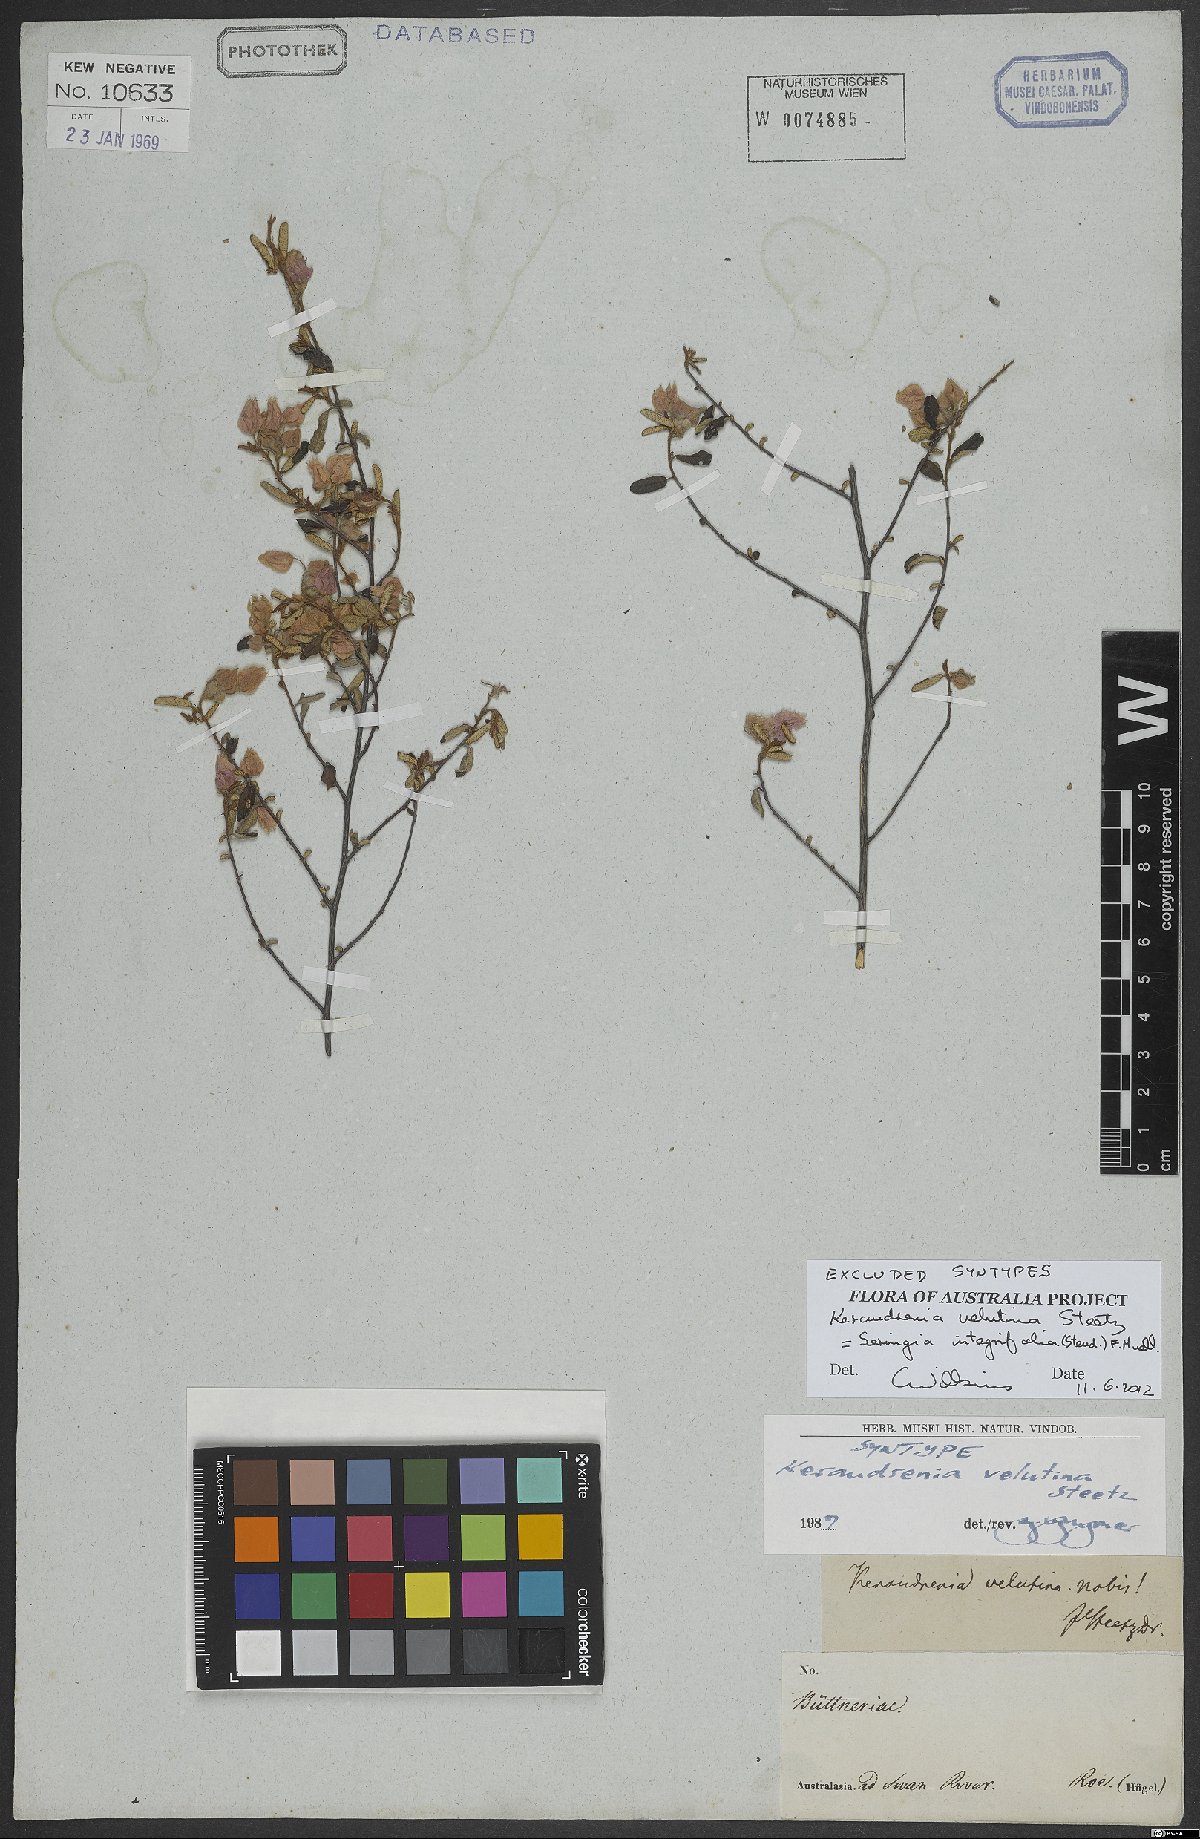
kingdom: Plantae
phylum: Tracheophyta
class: Magnoliopsida
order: Malvales
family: Malvaceae
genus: Seringia
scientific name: Seringia integrifolia
